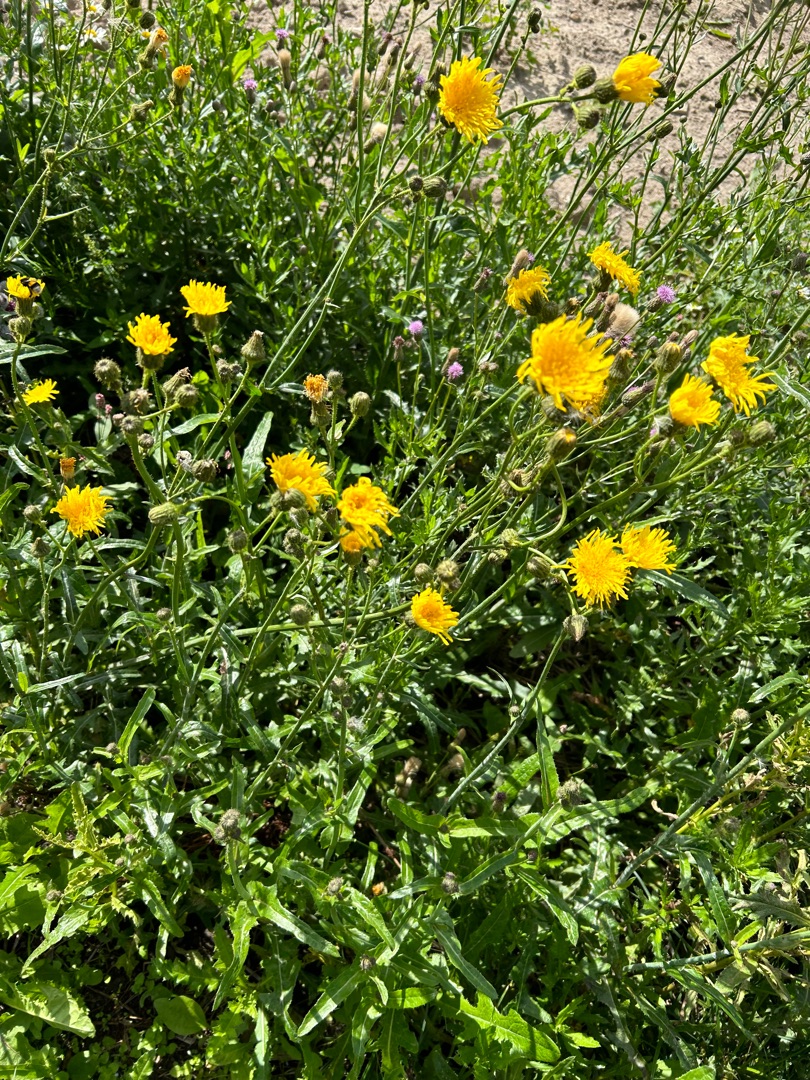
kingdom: Plantae
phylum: Tracheophyta
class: Magnoliopsida
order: Asterales
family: Asteraceae
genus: Sonchus
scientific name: Sonchus arvensis
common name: Ager-svinemælk
